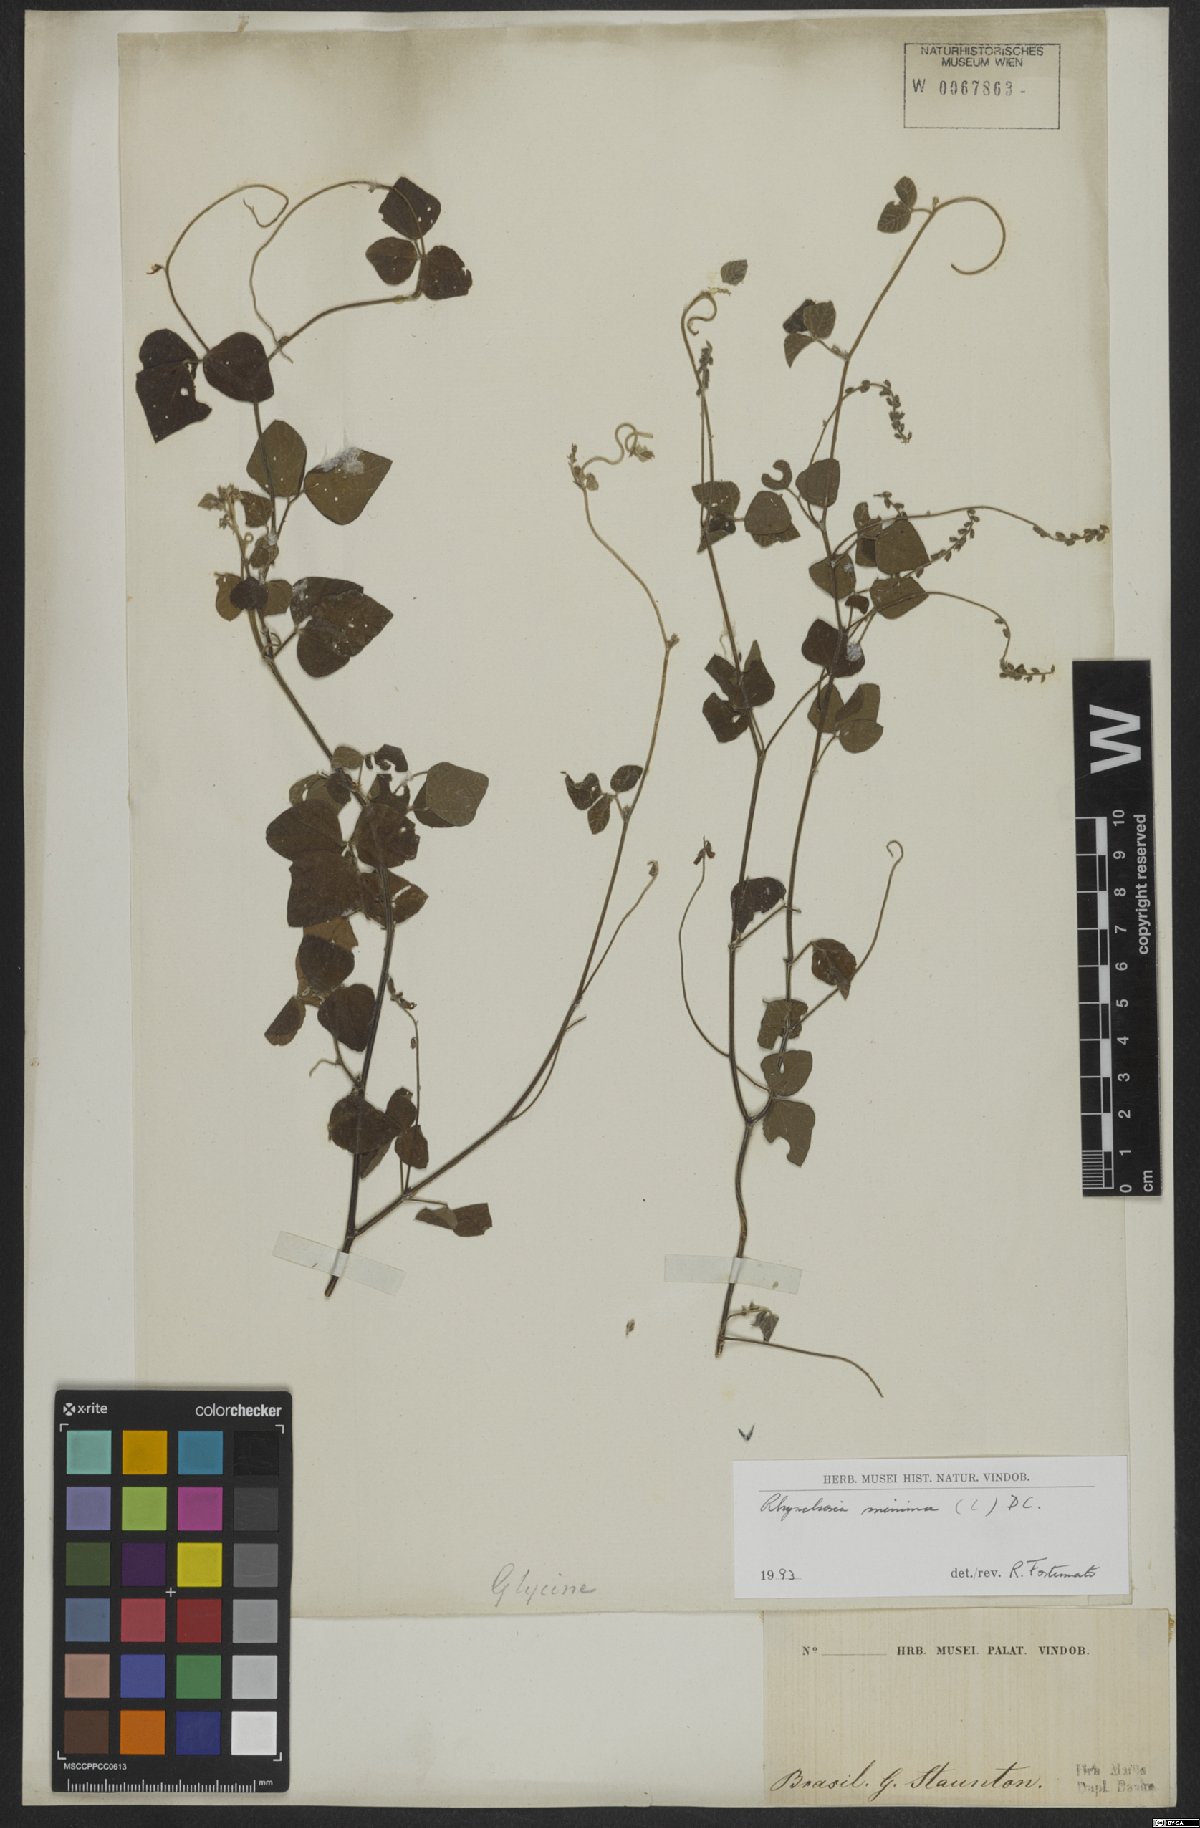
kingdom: Plantae
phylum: Tracheophyta
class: Magnoliopsida
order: Fabales
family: Fabaceae
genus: Rhynchosia
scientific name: Rhynchosia minima
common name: Least snoutbean
